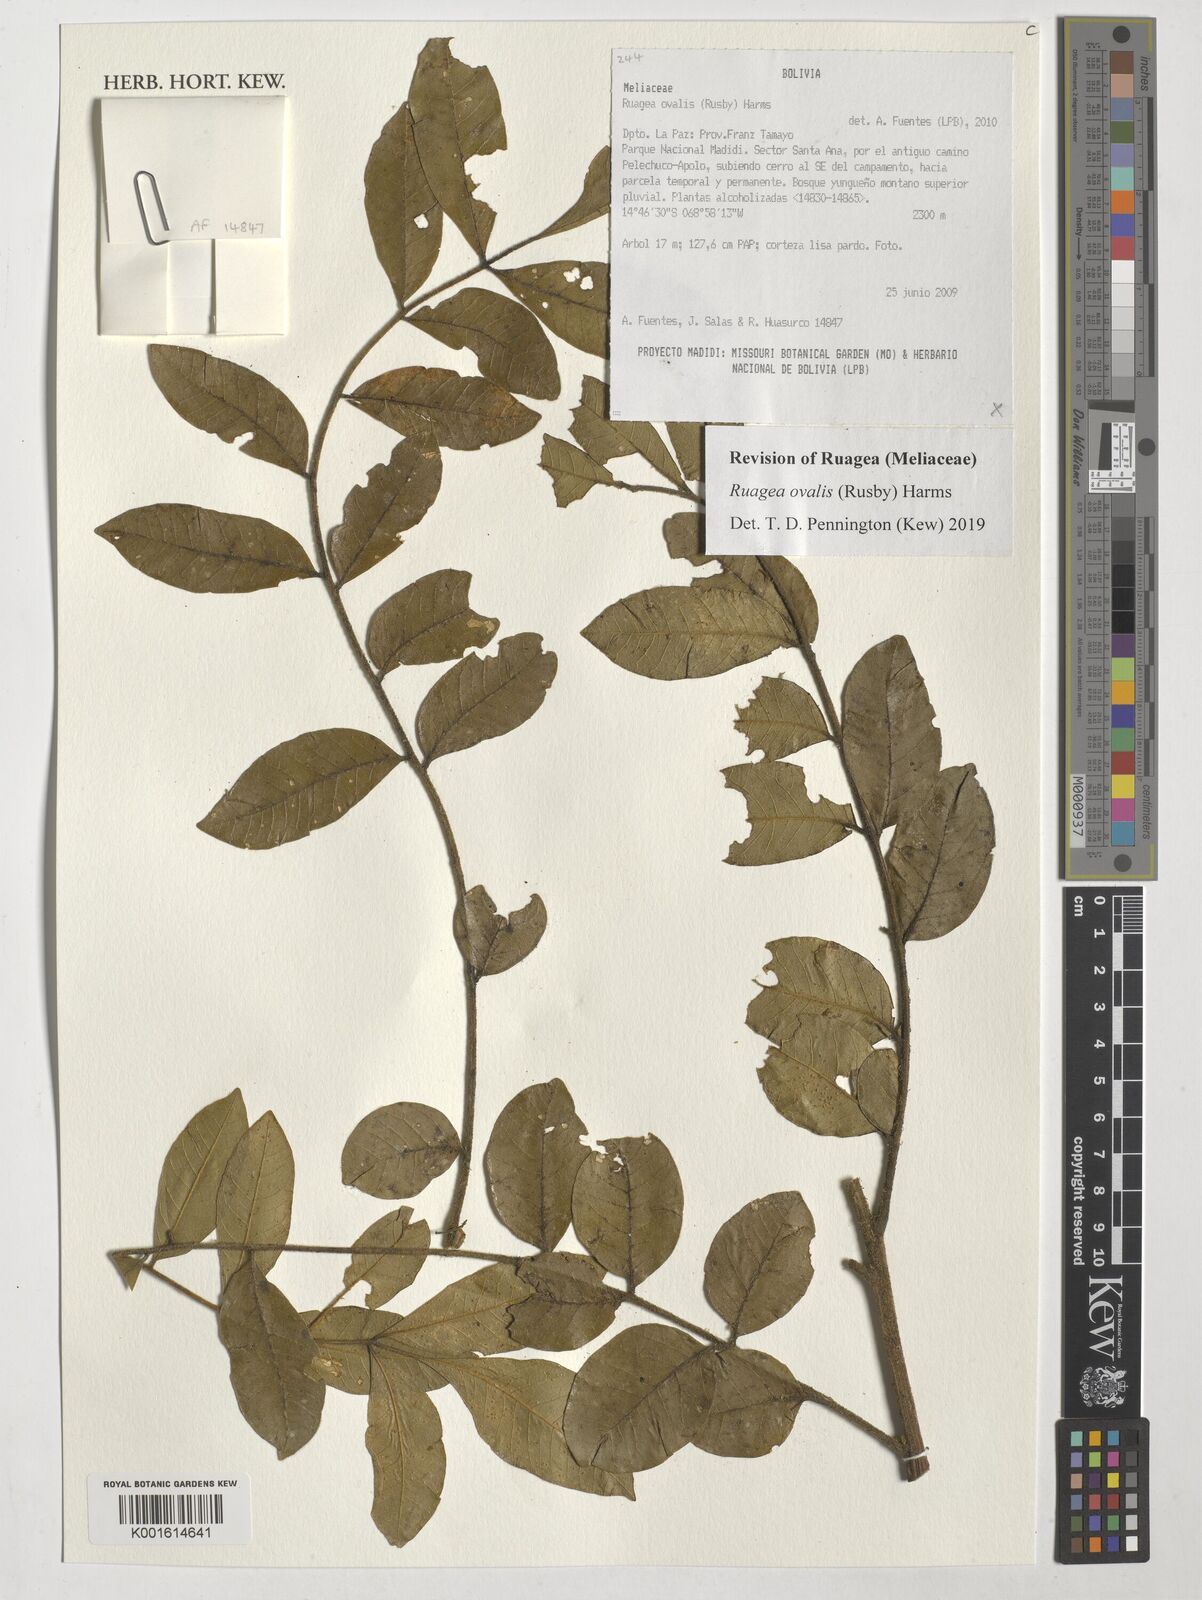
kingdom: Plantae
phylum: Tracheophyta
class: Magnoliopsida
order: Sapindales
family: Meliaceae
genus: Ruagea
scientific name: Ruagea ovalis
